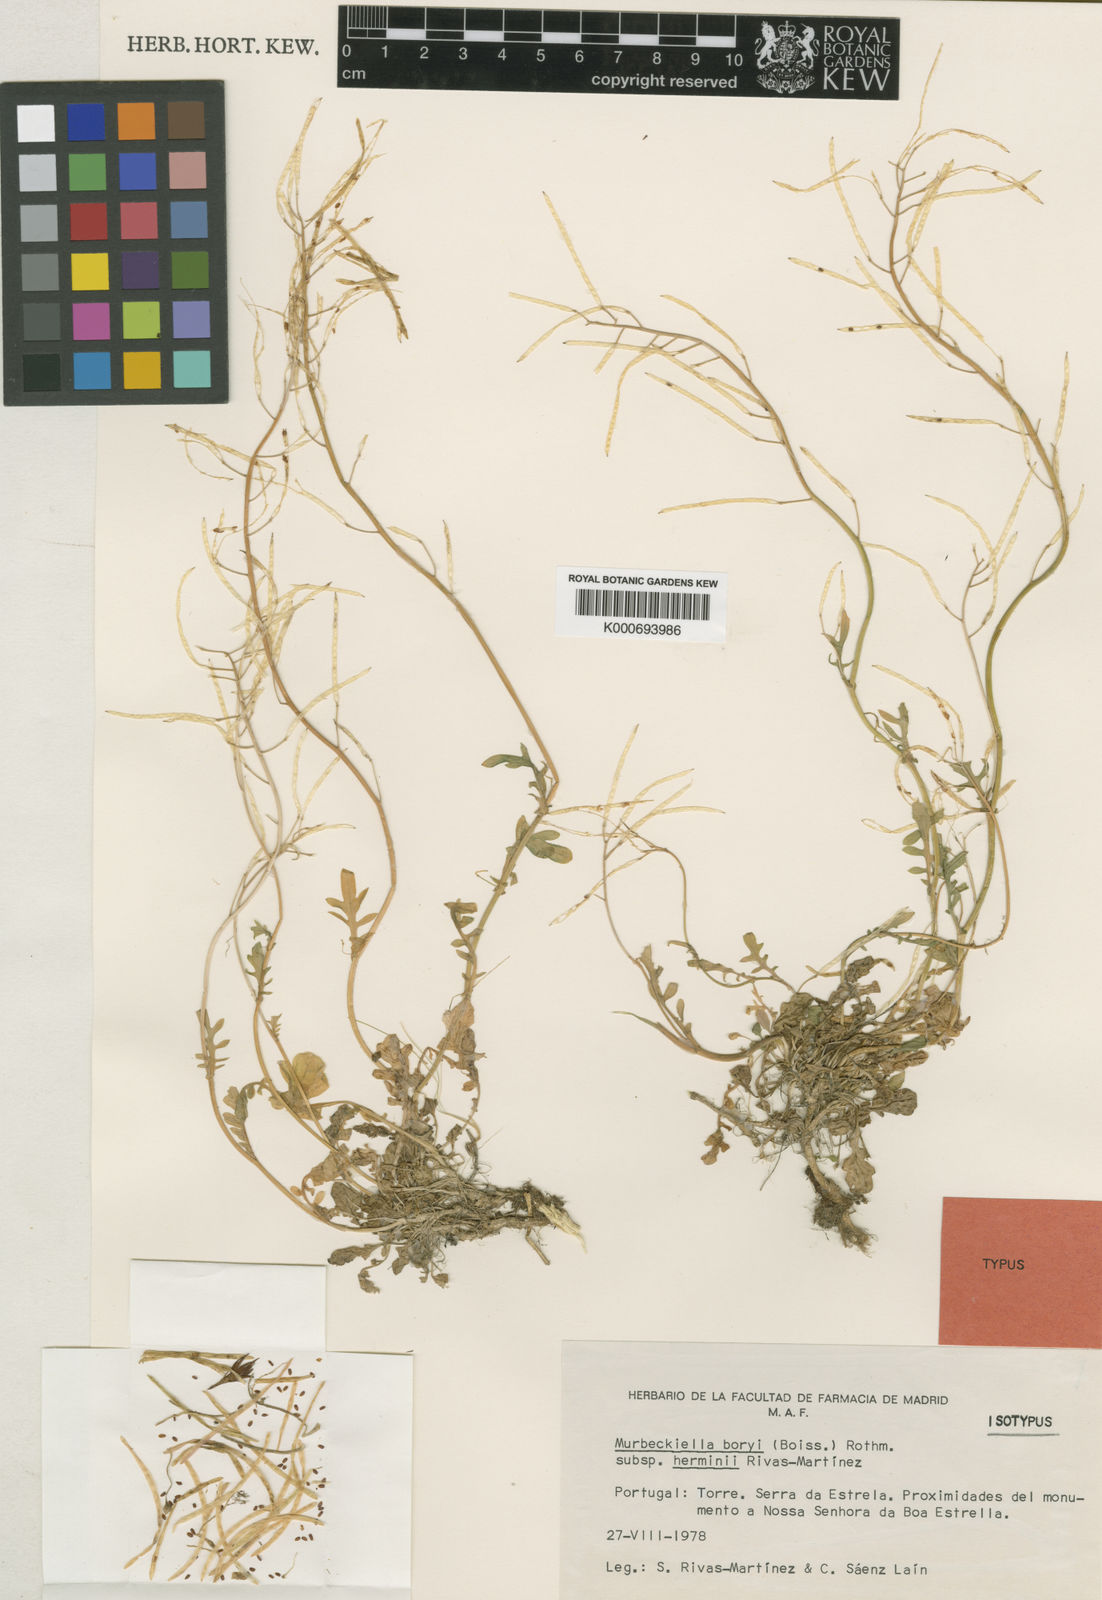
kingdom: Plantae
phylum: Tracheophyta
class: Magnoliopsida
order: Brassicales
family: Brassicaceae
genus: Murbeckiella
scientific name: Murbeckiella boryi
